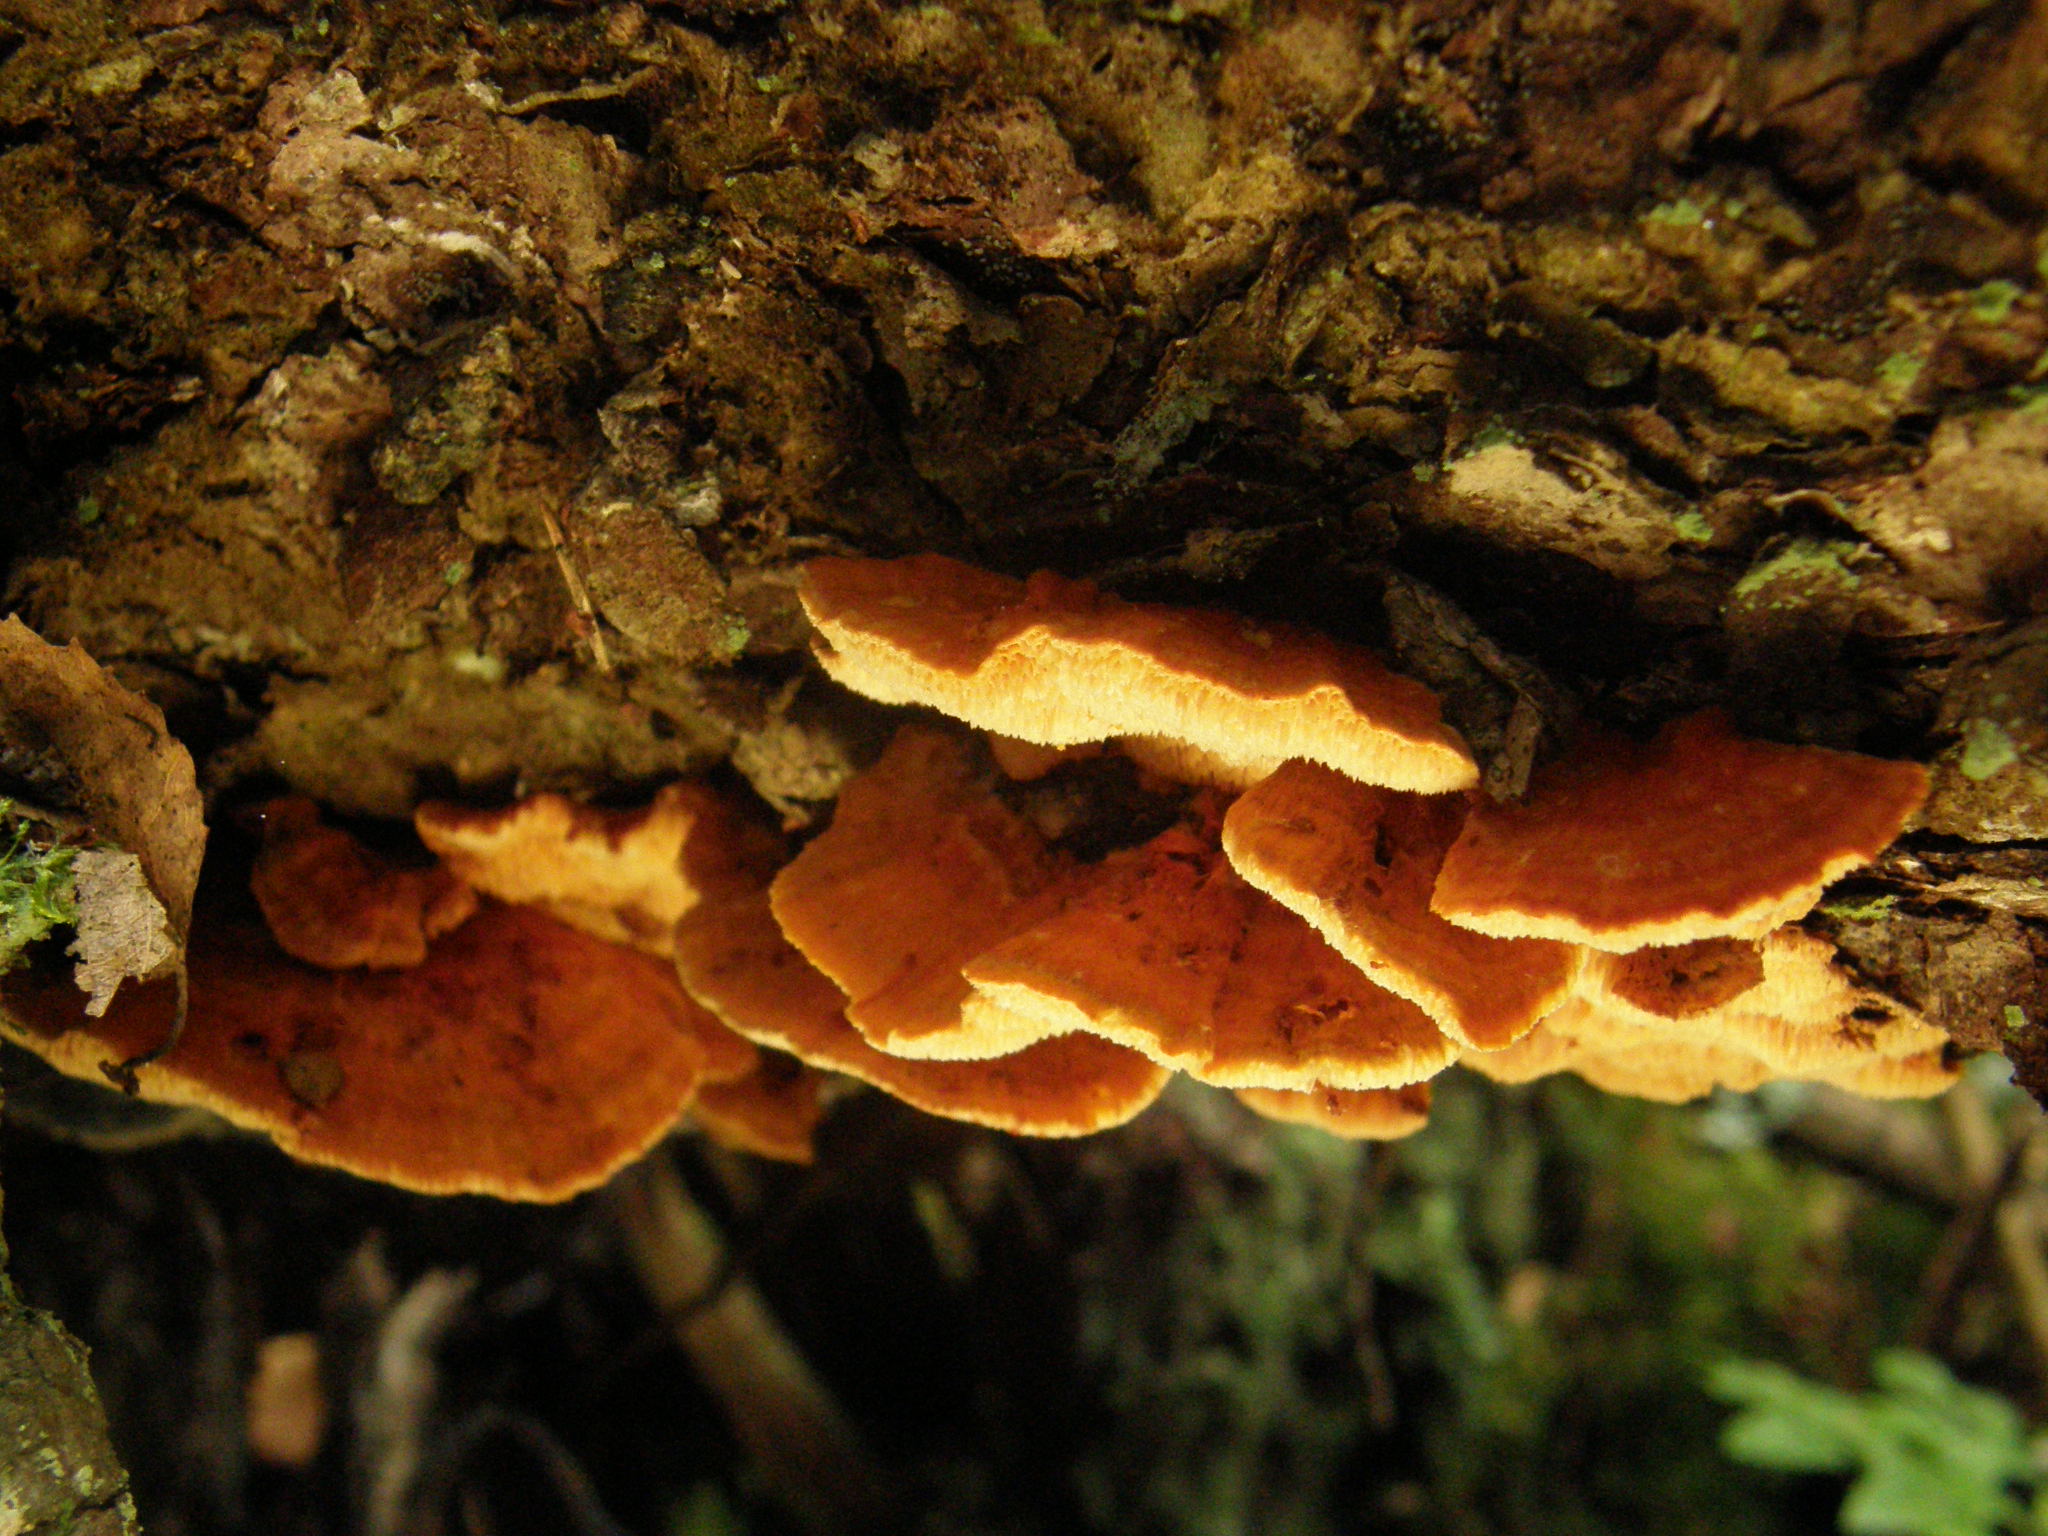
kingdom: Fungi
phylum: Basidiomycota
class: Agaricomycetes
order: Polyporales
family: Pycnoporellaceae
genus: Pycnoporellus
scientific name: Pycnoporellus fulgens
